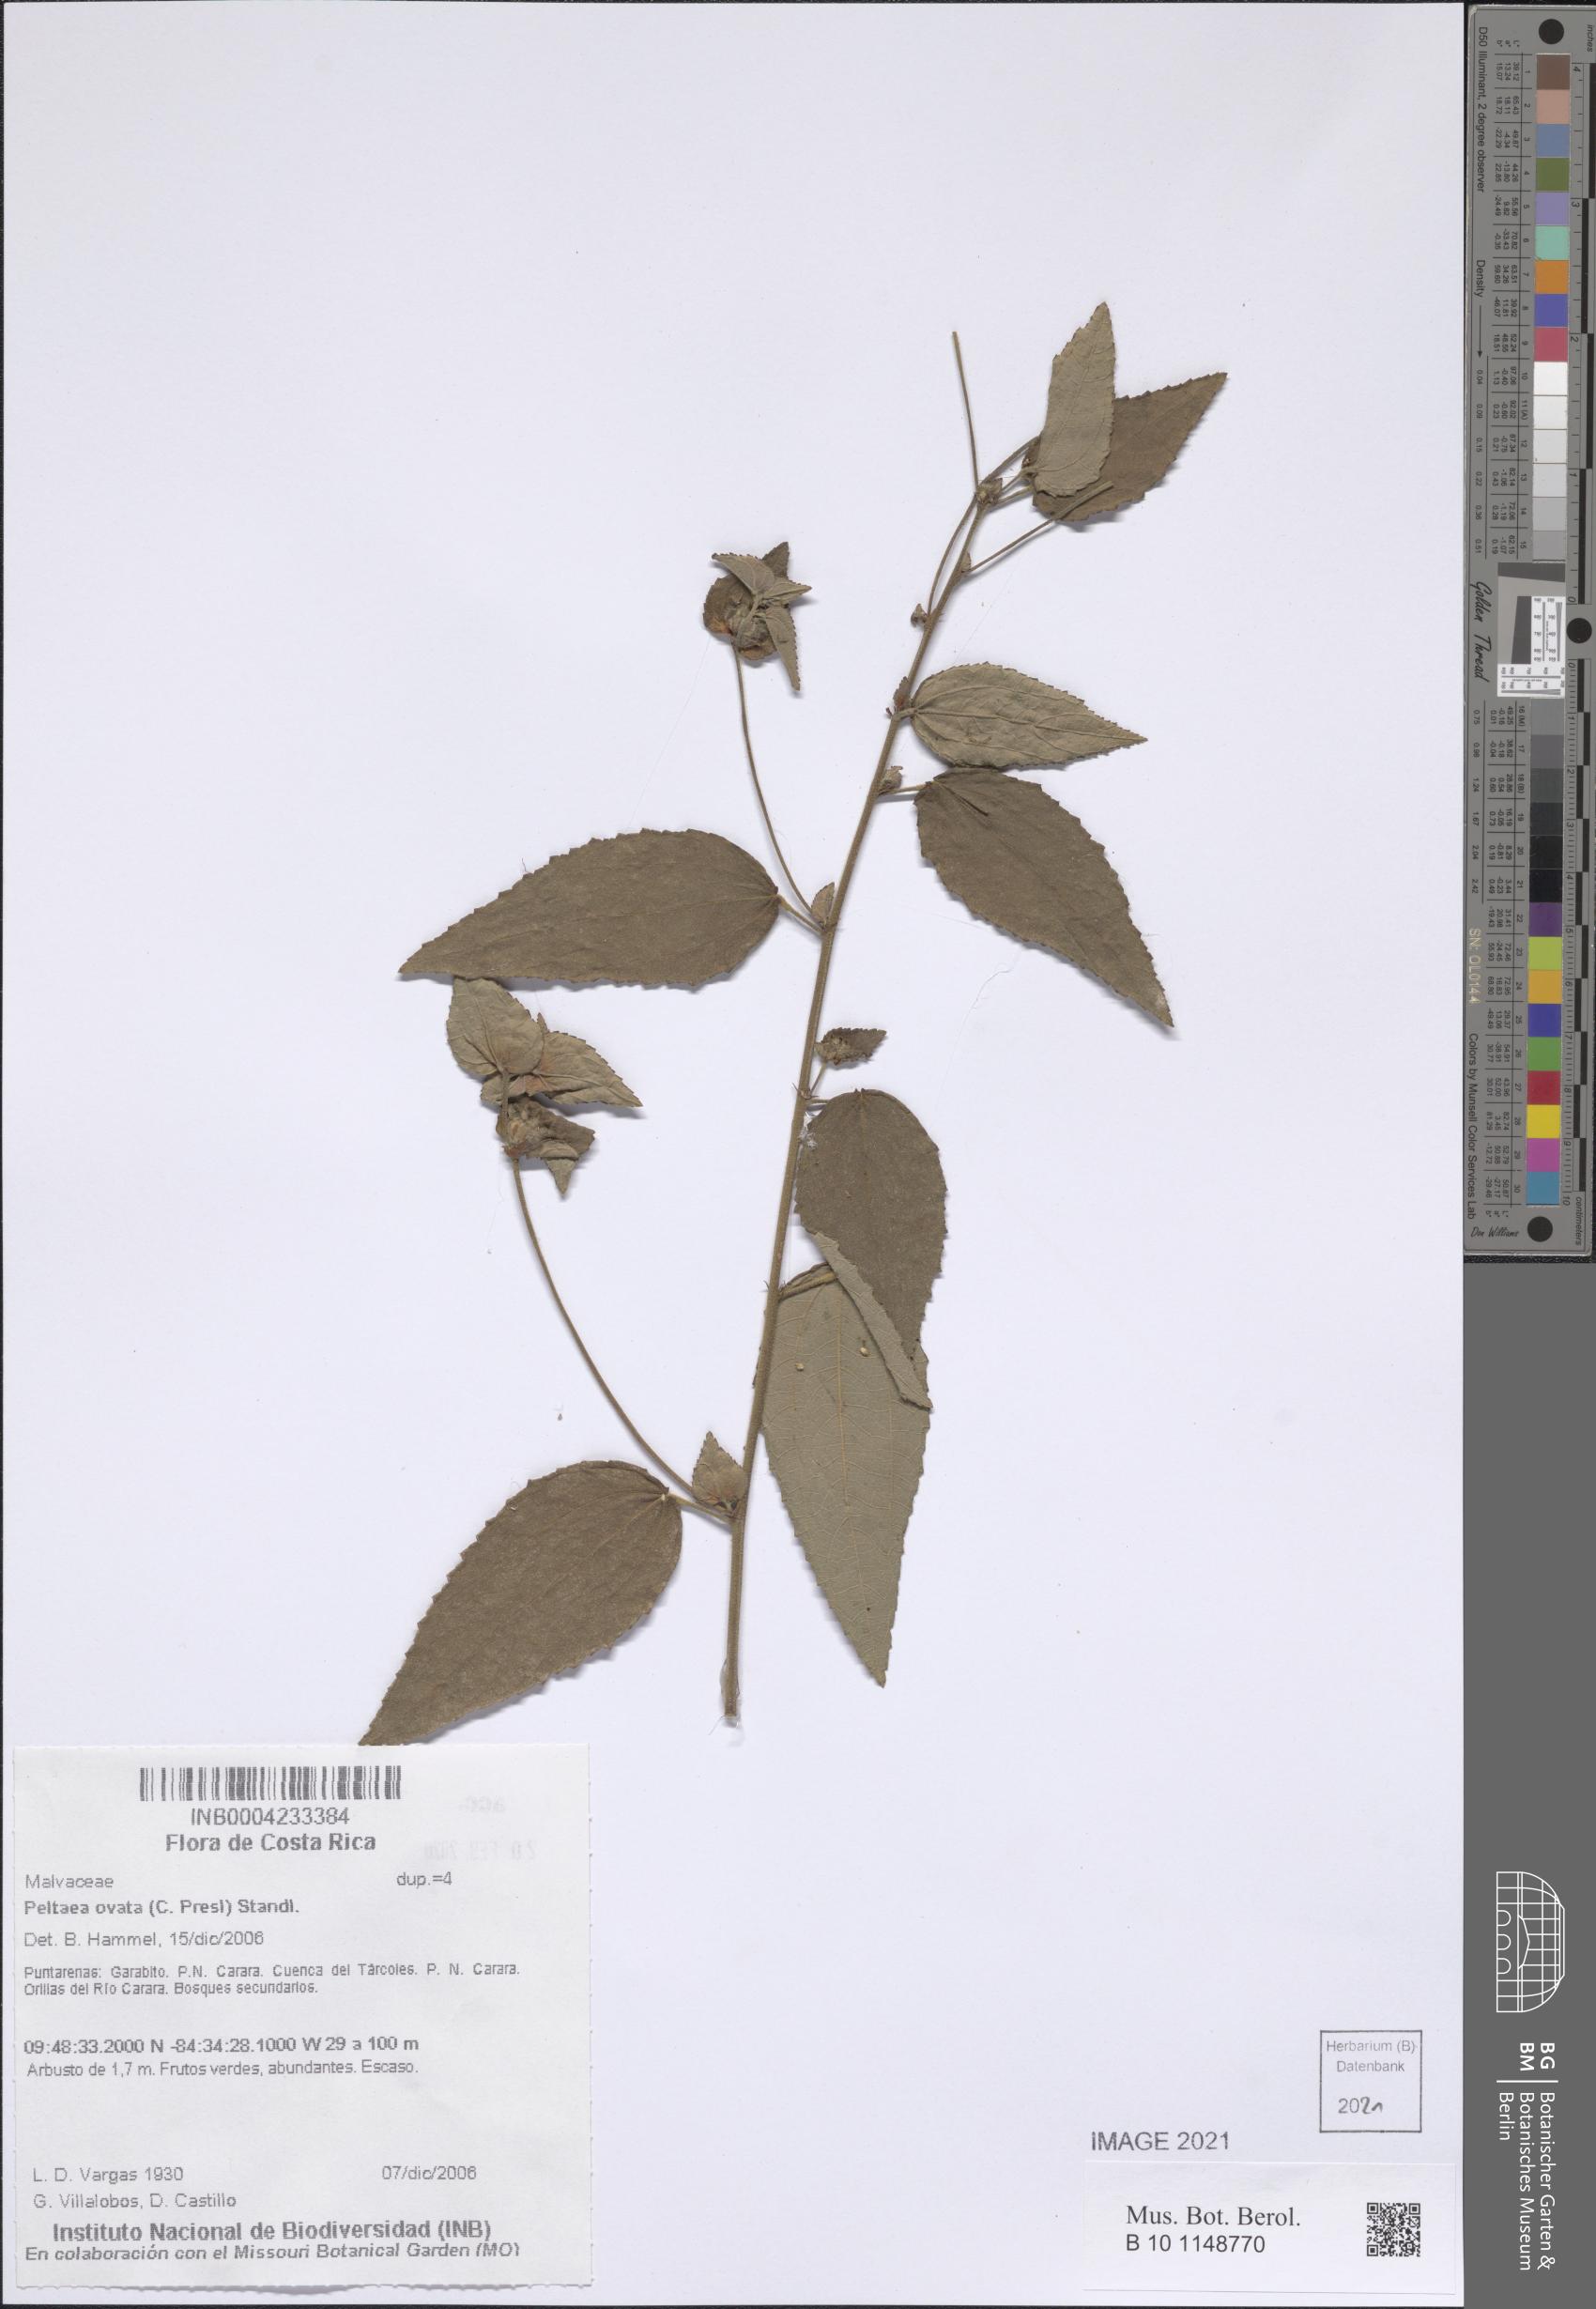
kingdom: Plantae
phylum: Tracheophyta
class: Magnoliopsida
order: Malvales
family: Malvaceae
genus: Peltaea
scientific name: Peltaea ovata
